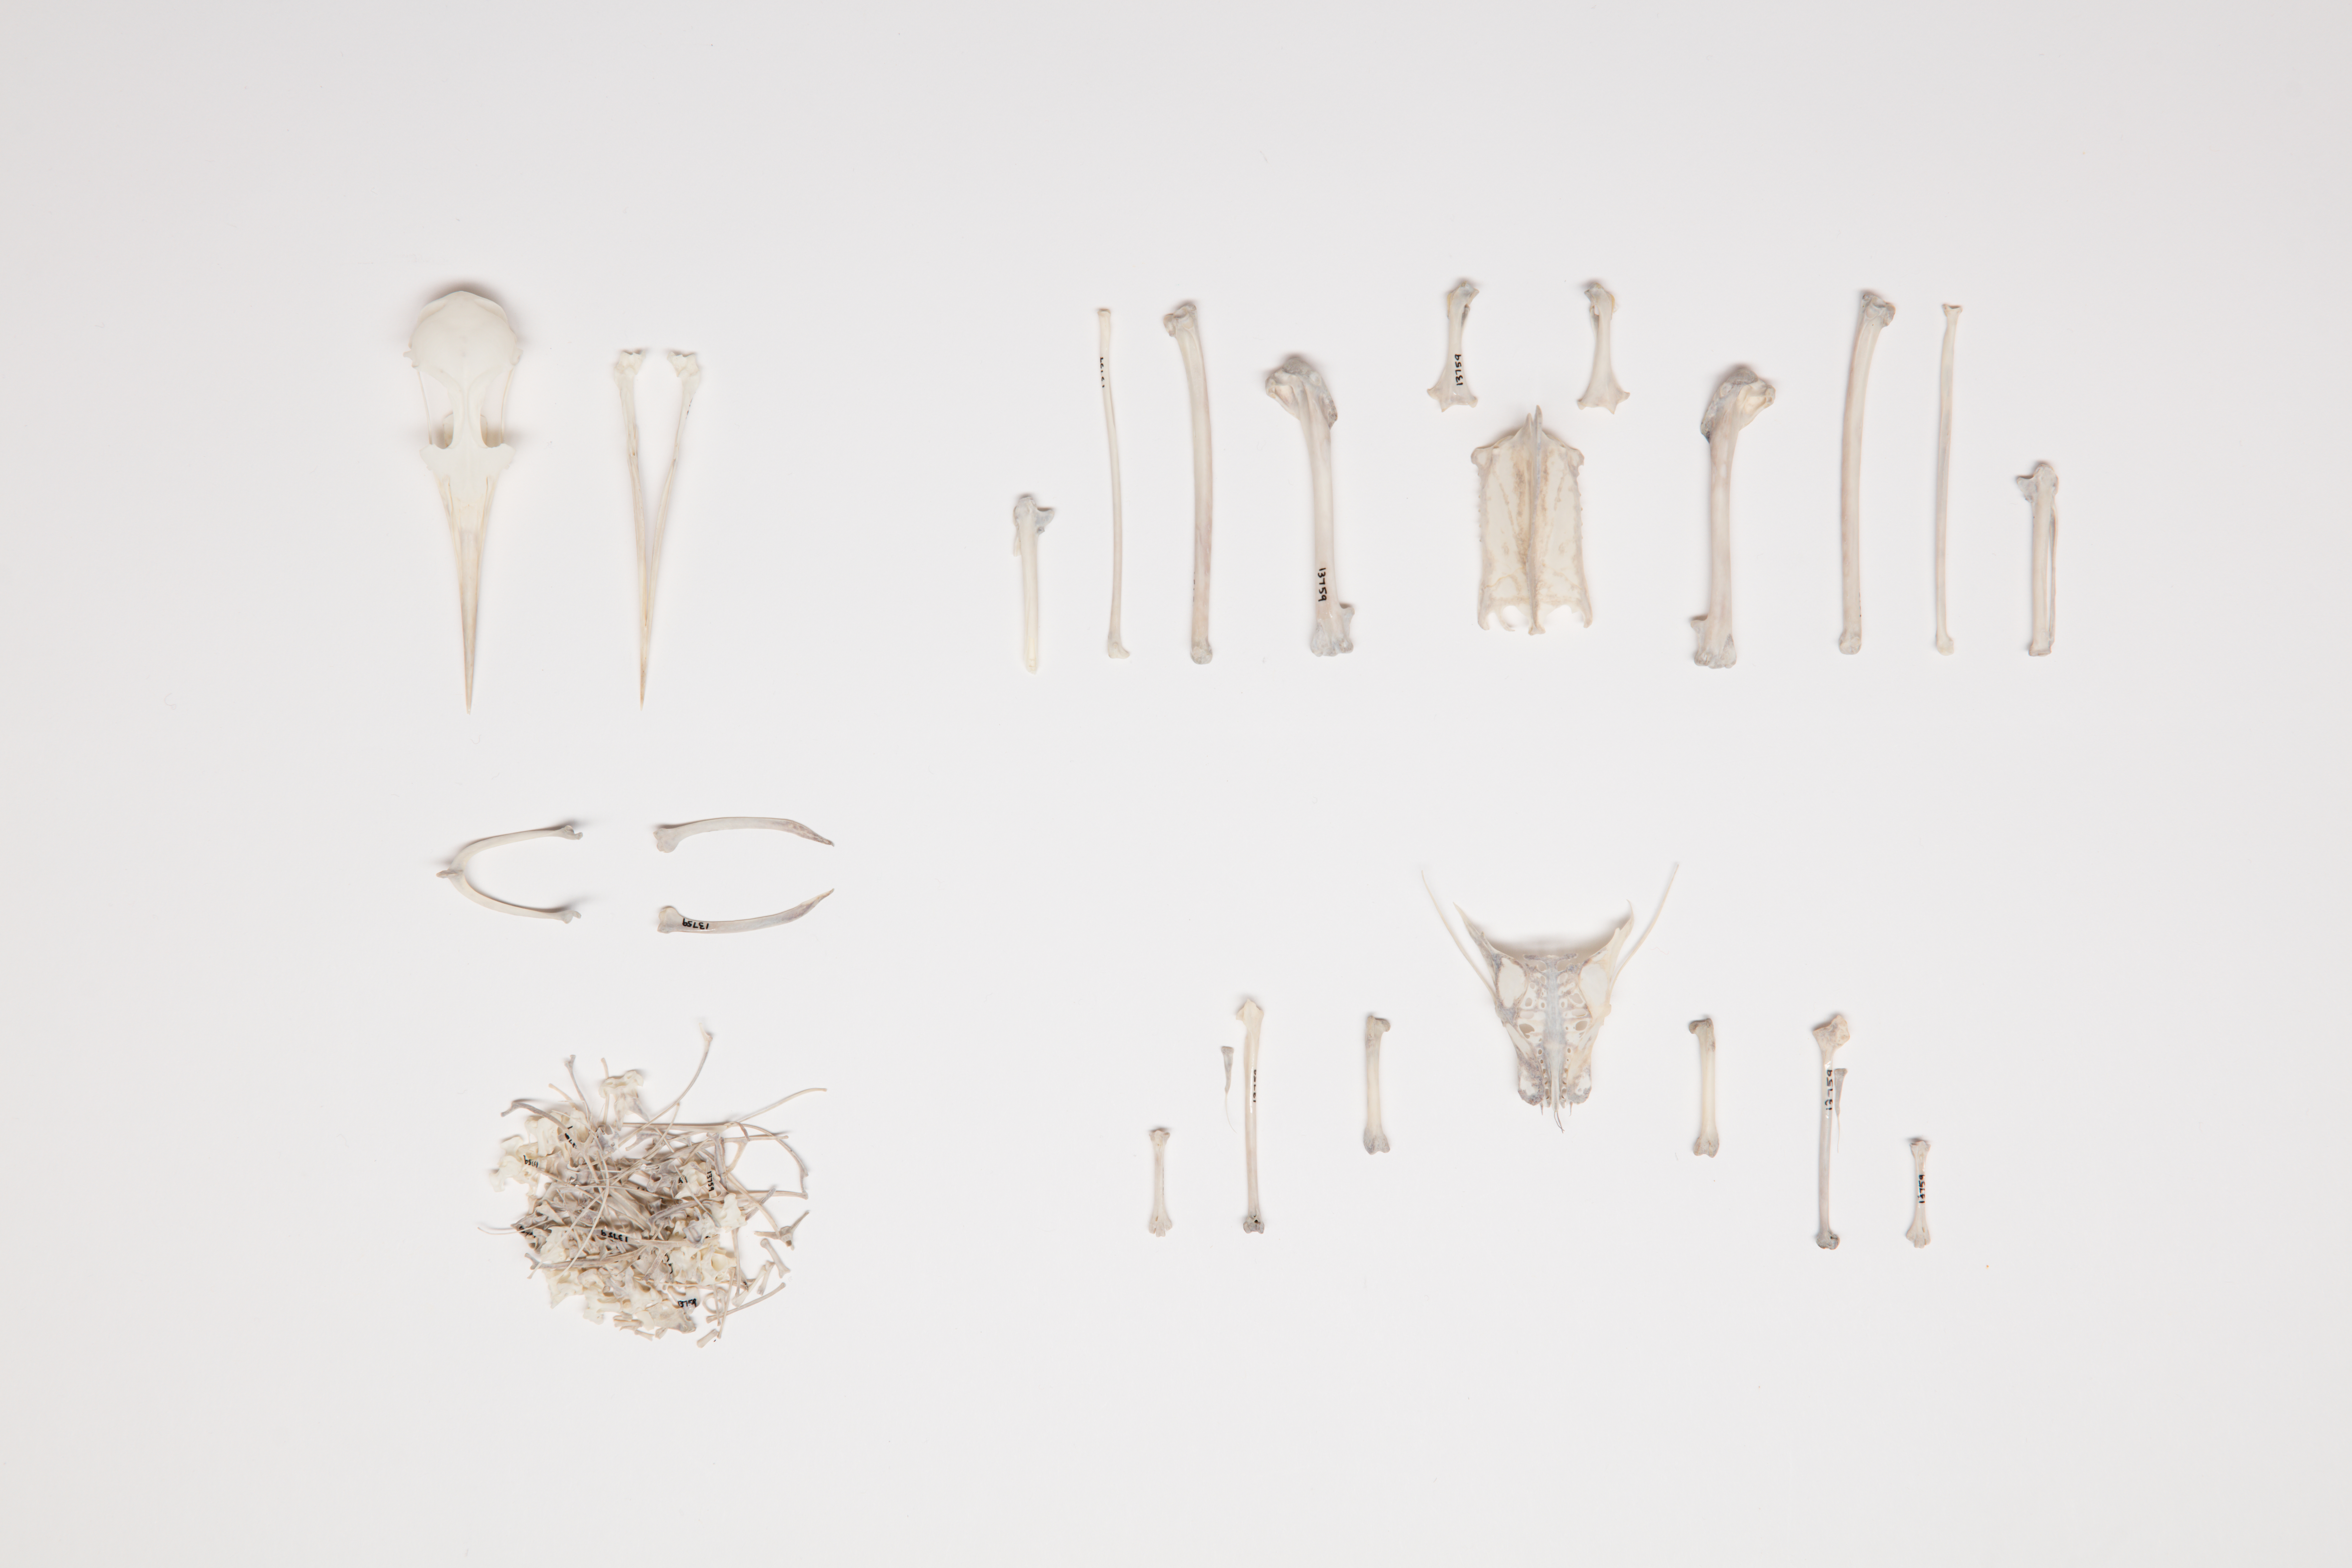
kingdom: Animalia
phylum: Chordata
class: Aves
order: Charadriiformes
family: Laridae
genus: Sterna
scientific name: Sterna striata
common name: White-fronted tern
